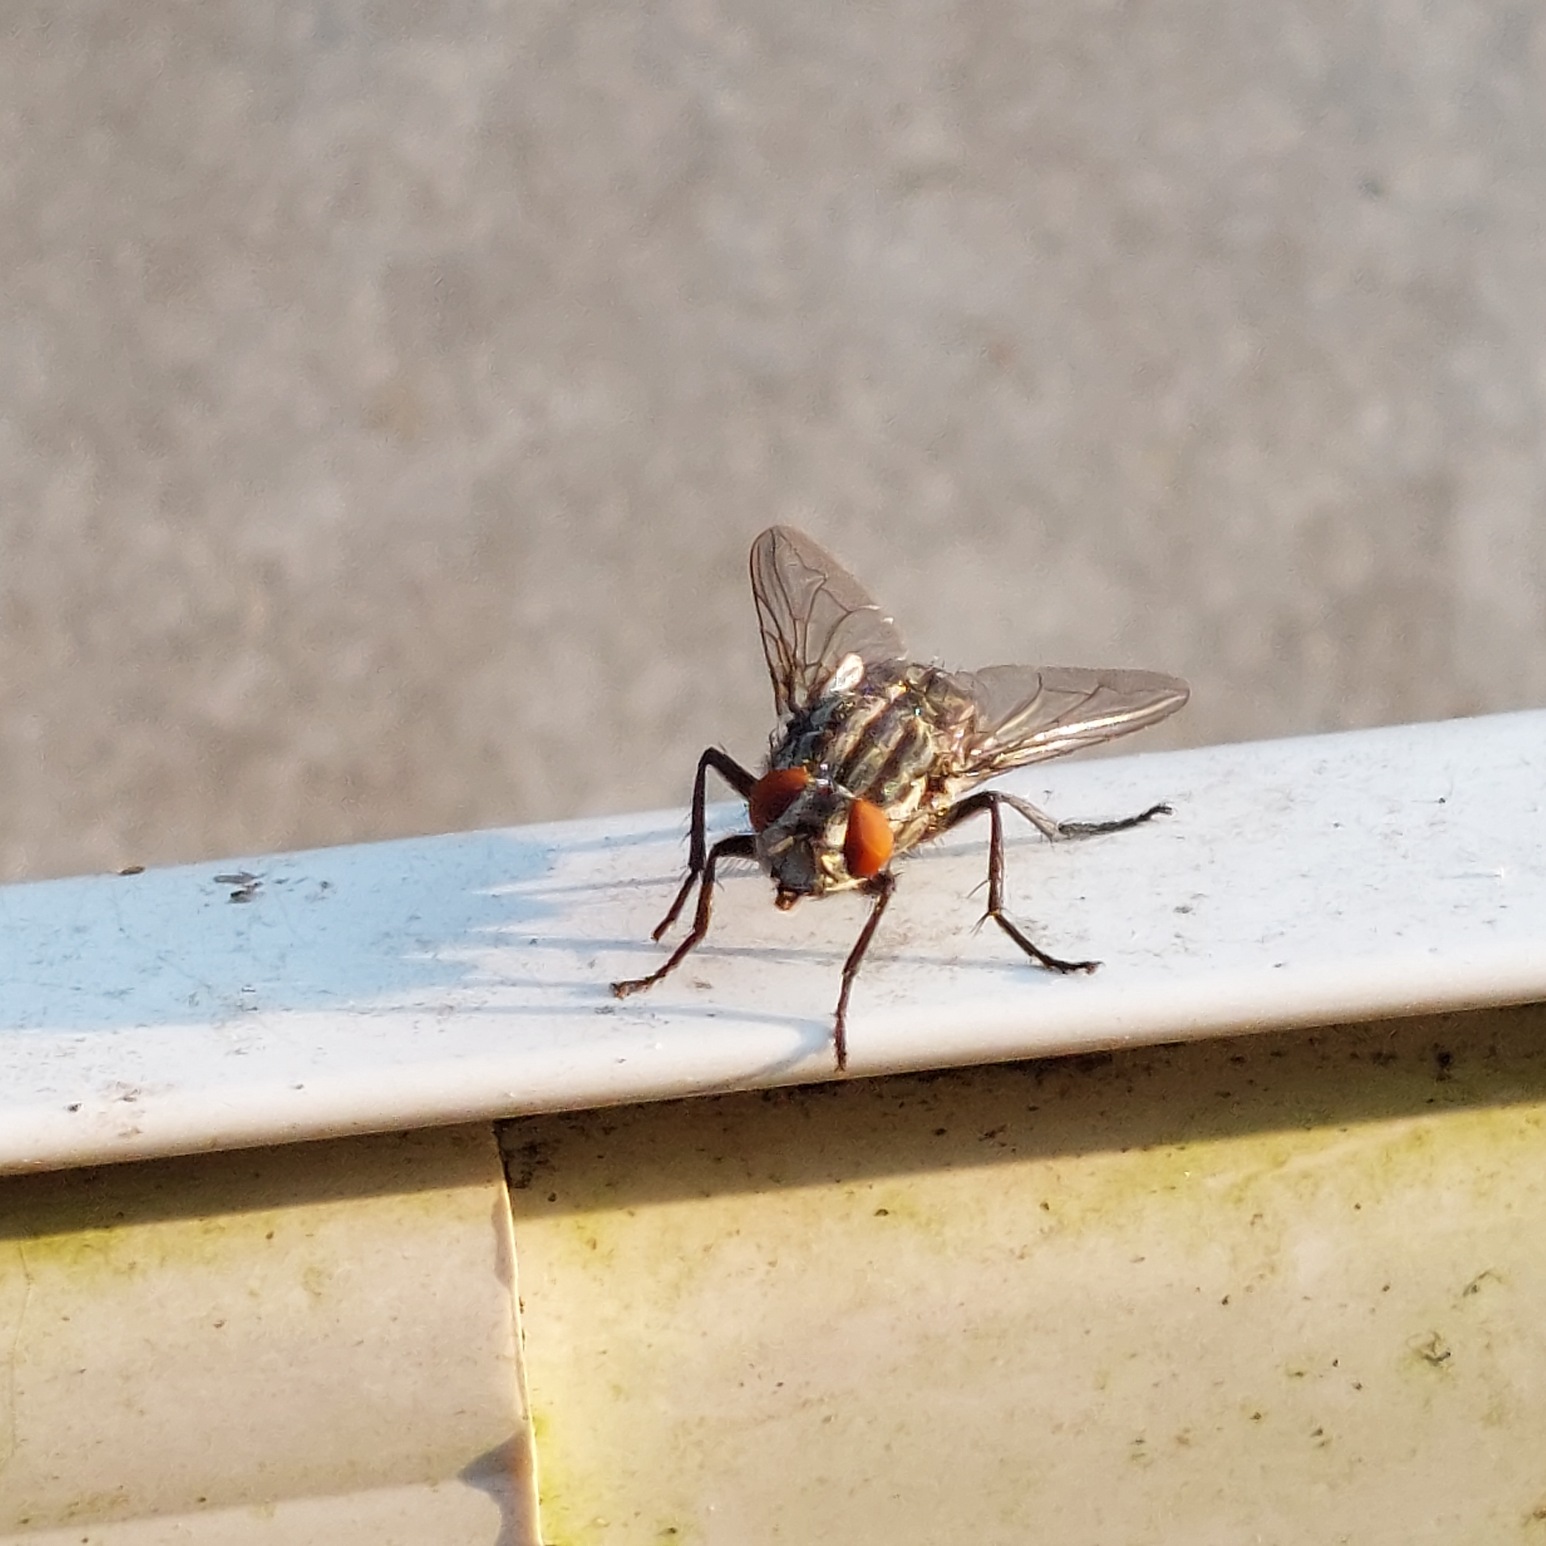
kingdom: Animalia
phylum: Arthropoda
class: Insecta
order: Diptera
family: Sarcophagidae
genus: Sarcophaga
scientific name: Sarcophaga
